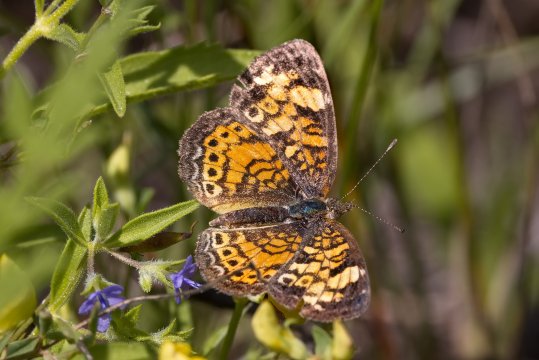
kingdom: Animalia
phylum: Arthropoda
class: Insecta
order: Lepidoptera
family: Nymphalidae
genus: Phyciodes
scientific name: Phyciodes tharos
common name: Pearl Crescent
